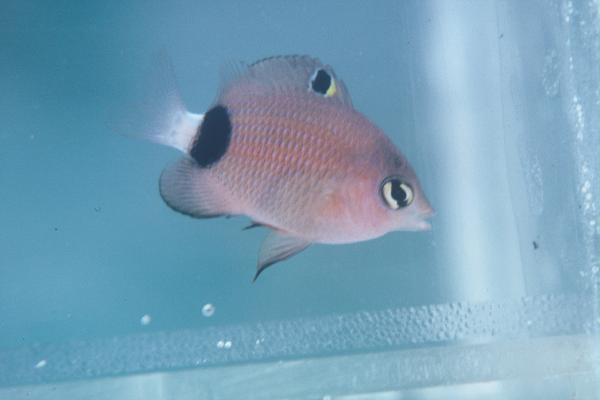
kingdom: Animalia
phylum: Chordata
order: Perciformes
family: Pomacentridae
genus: Plectroglyphidodon
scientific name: Plectroglyphidodon dickii
